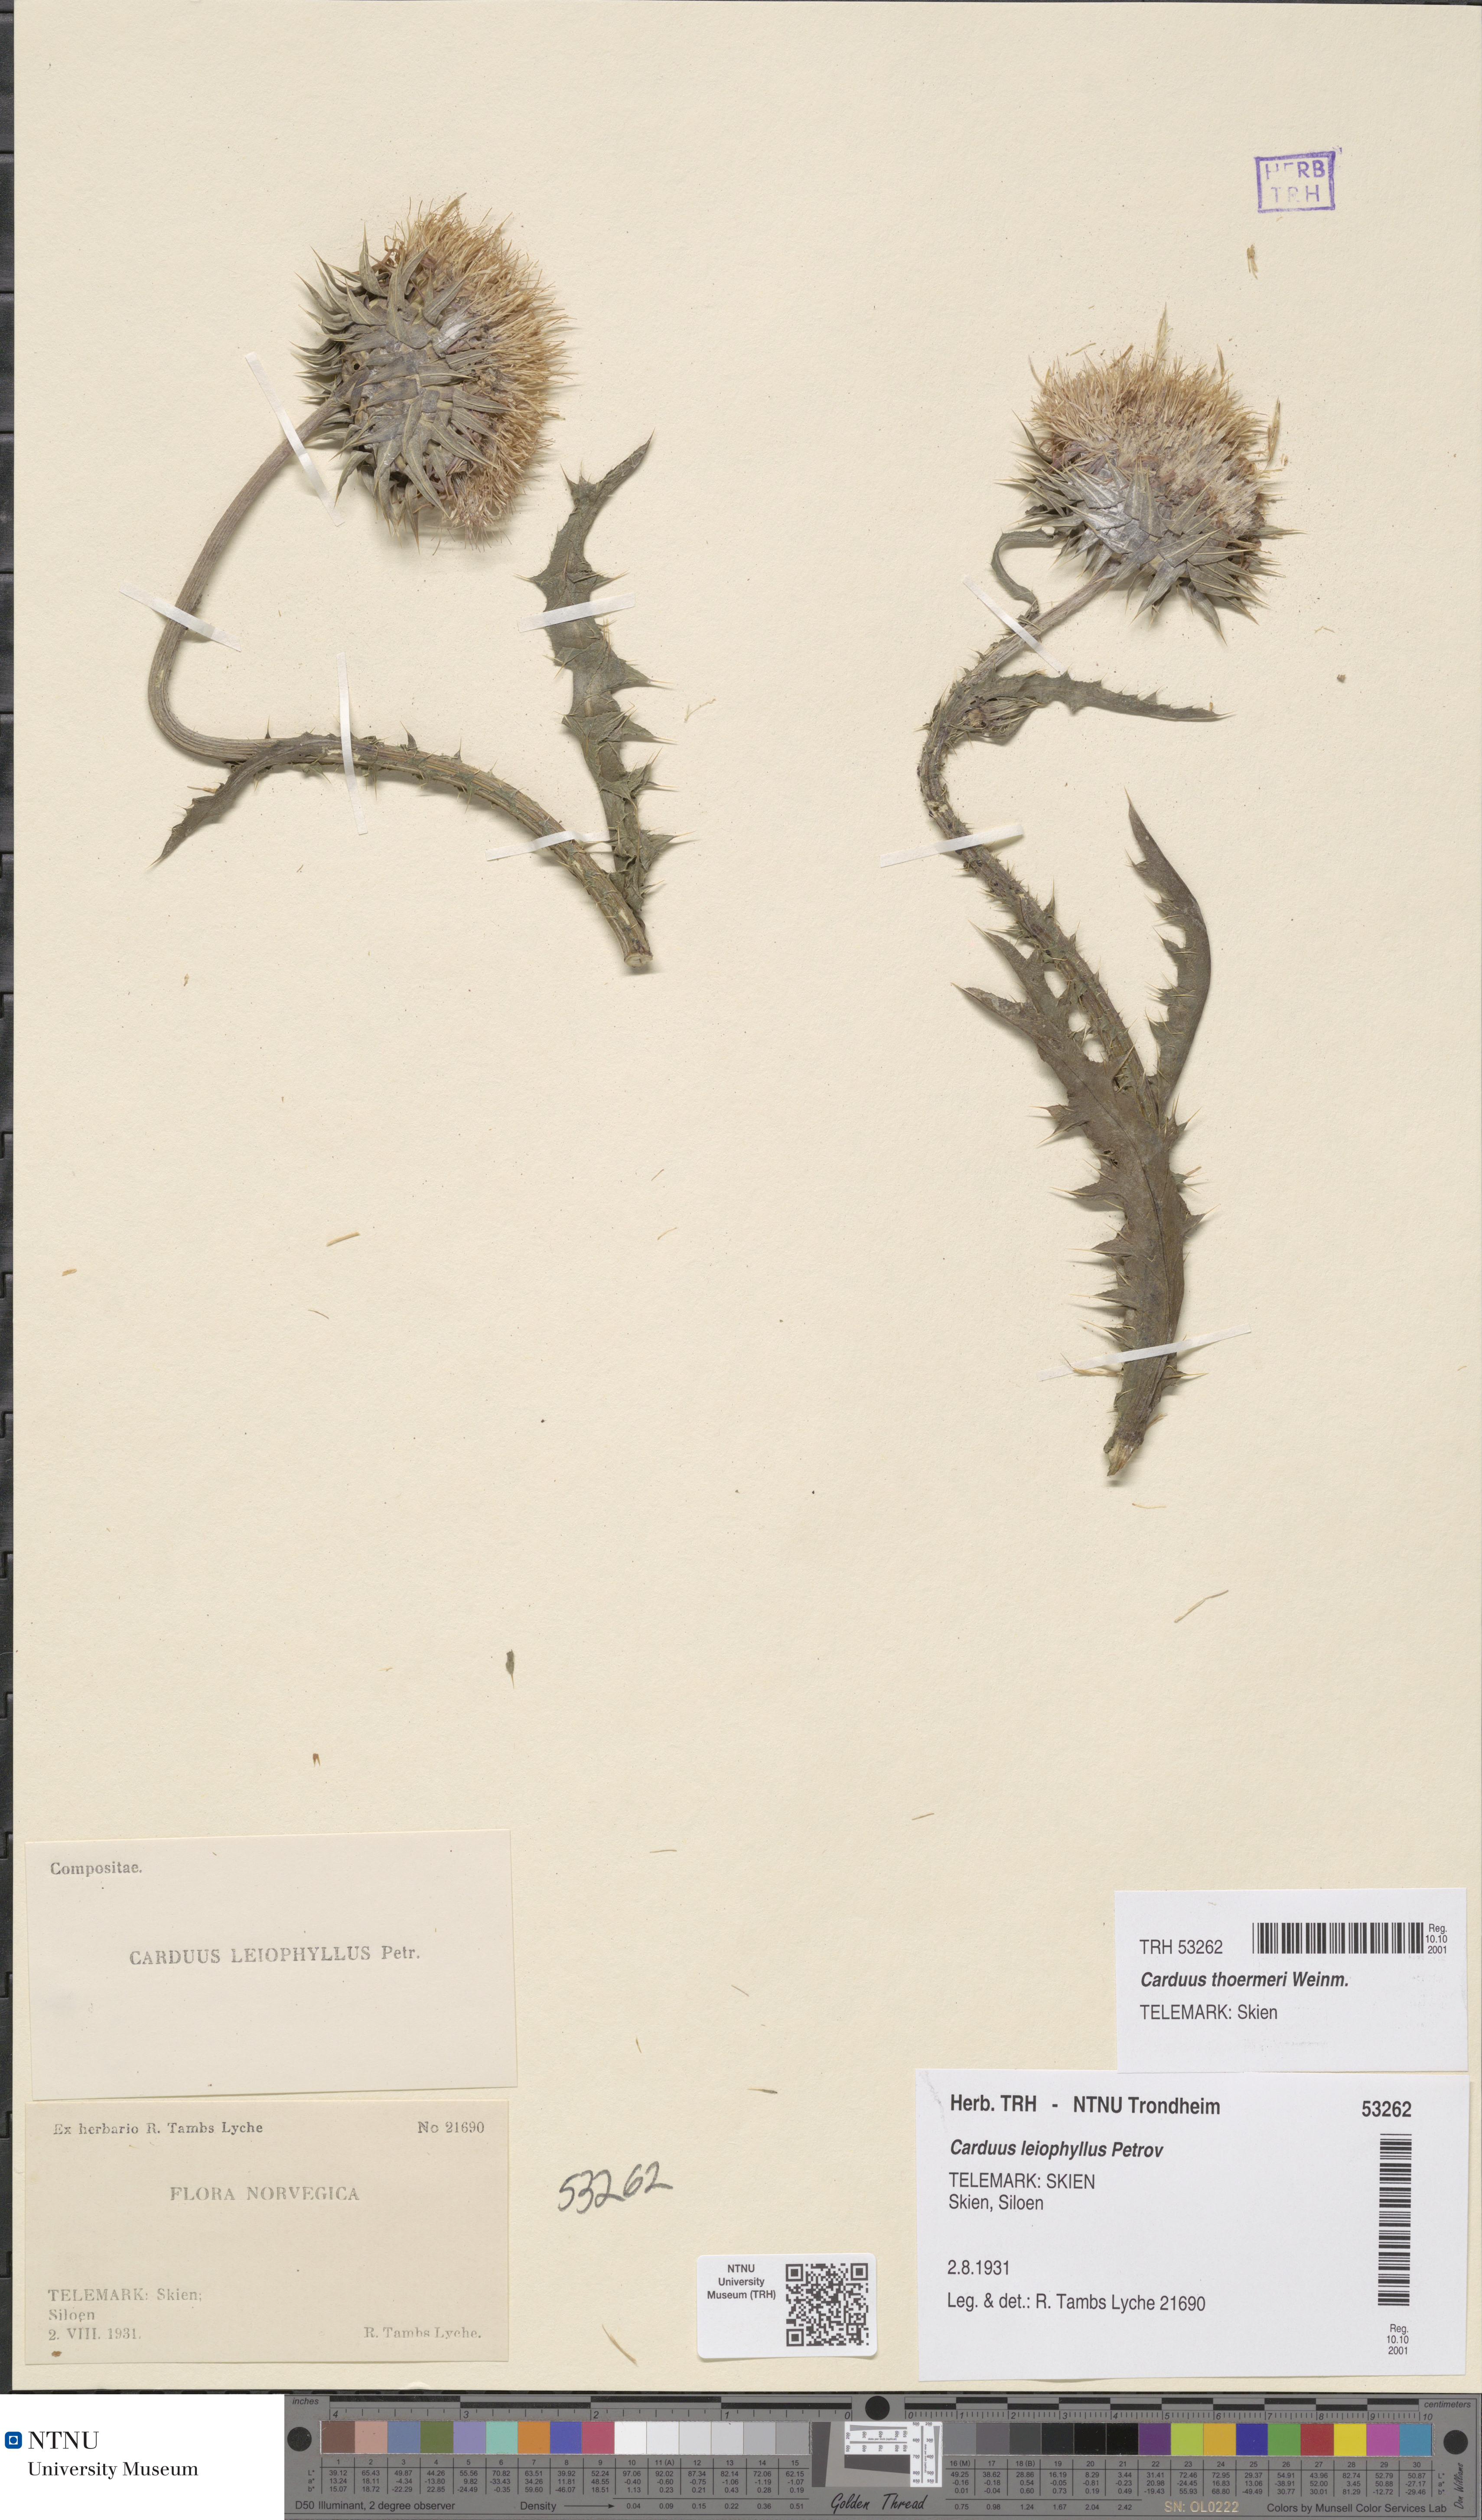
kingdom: Plantae
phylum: Tracheophyta
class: Magnoliopsida
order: Asterales
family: Asteraceae
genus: Carduus
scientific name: Carduus nutans
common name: Musk thistle
